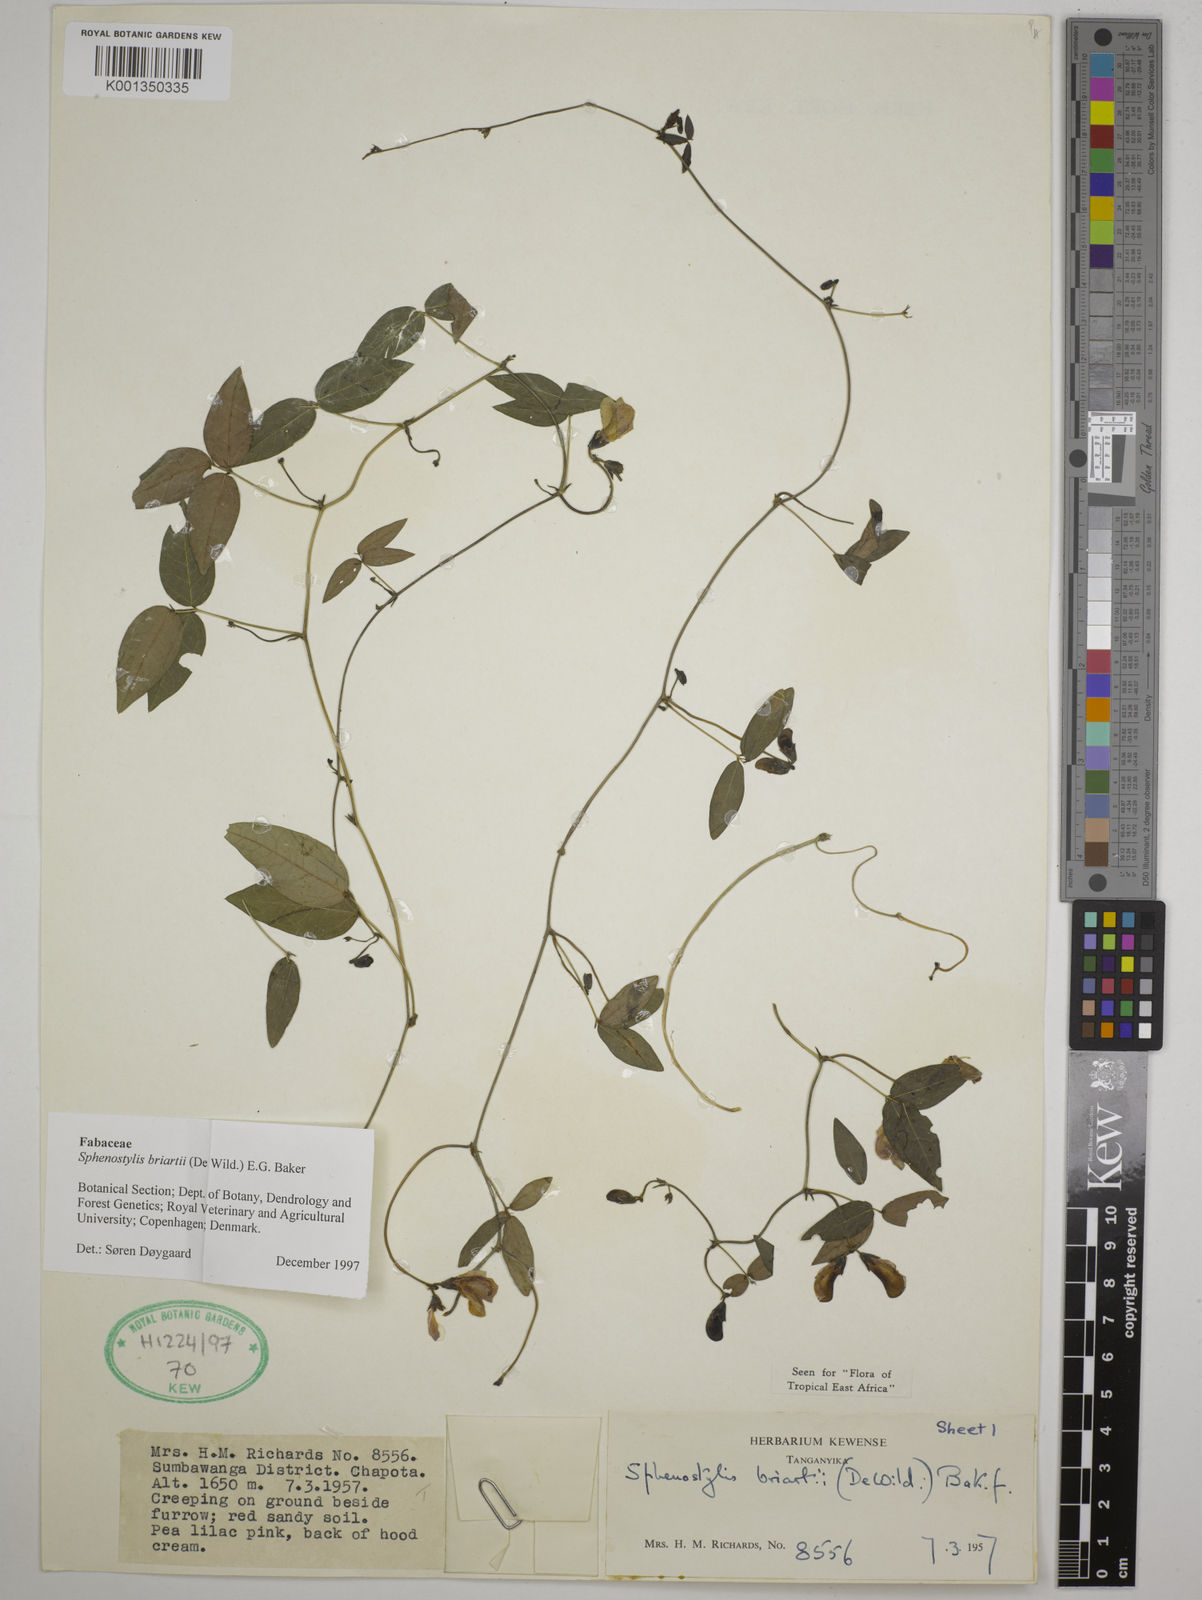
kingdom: Plantae
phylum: Tracheophyta
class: Magnoliopsida
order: Fabales
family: Fabaceae
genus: Sphenostylis
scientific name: Sphenostylis briartii
